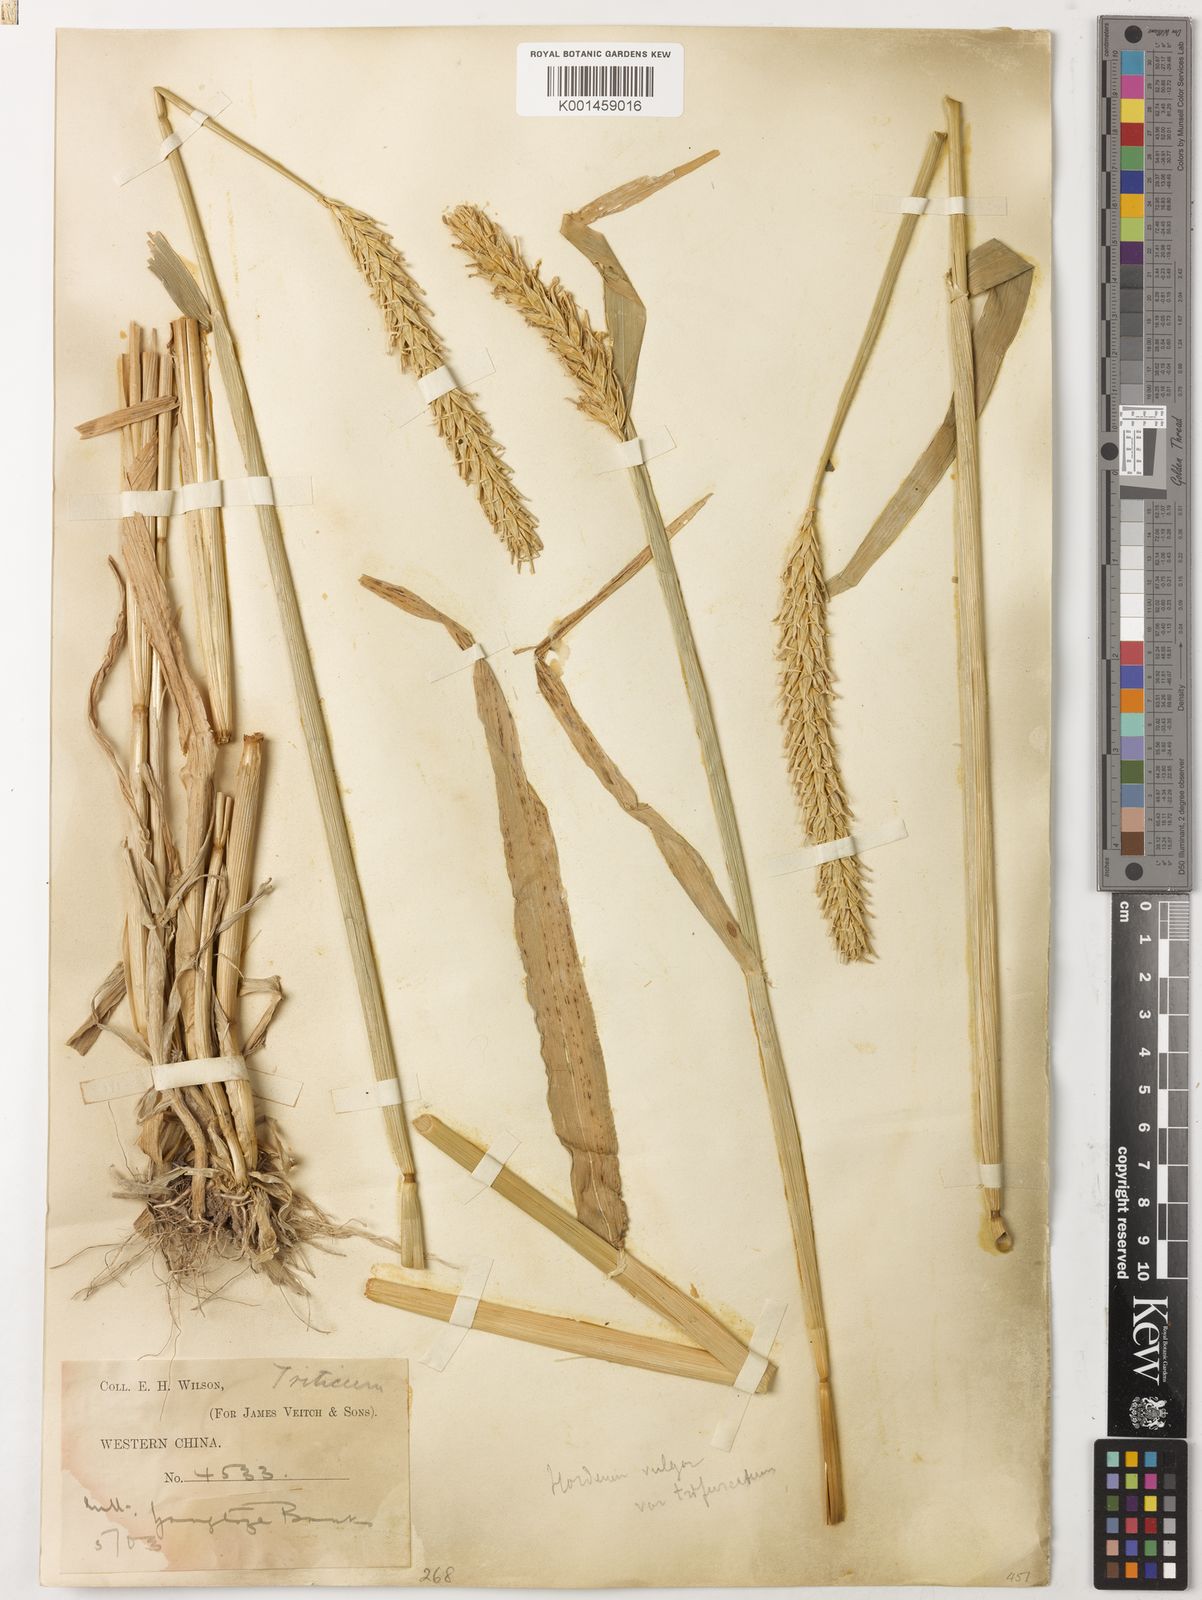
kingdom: Plantae
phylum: Tracheophyta
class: Liliopsida
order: Poales
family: Poaceae
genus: Hordeum
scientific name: Hordeum vulgare
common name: Common barley
